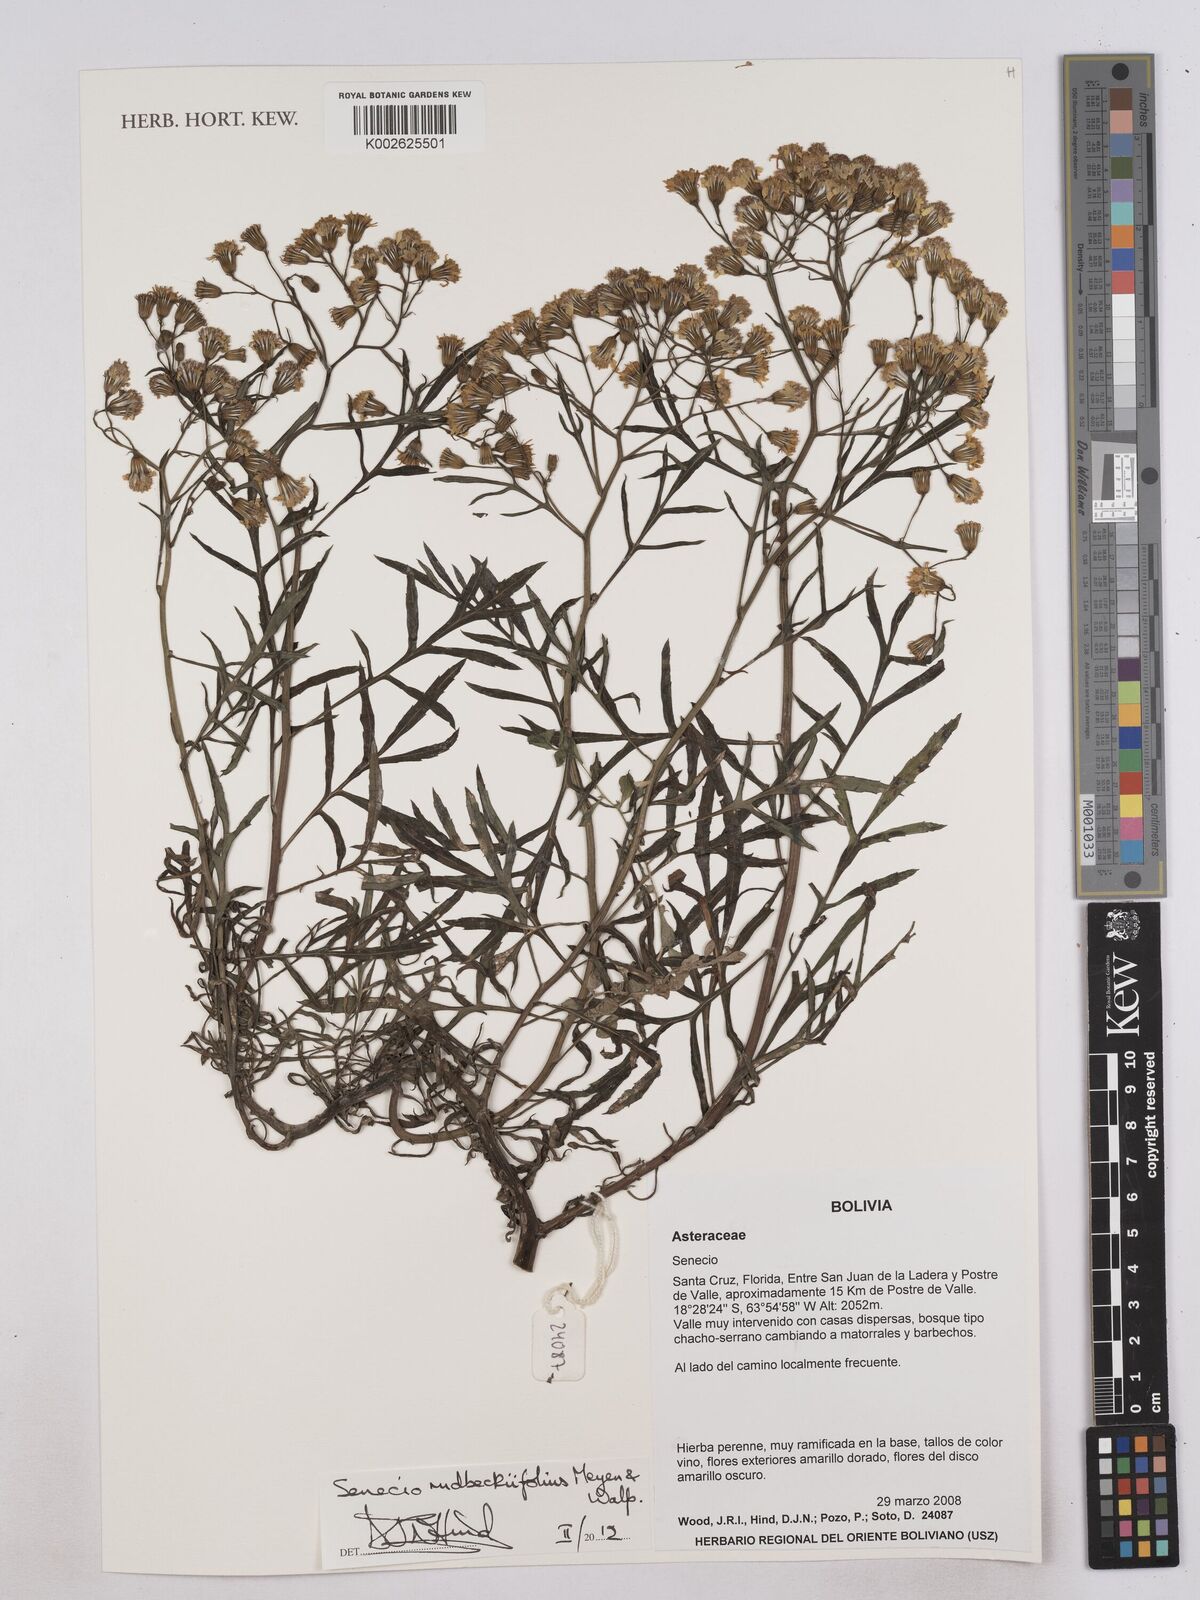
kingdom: Plantae
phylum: Tracheophyta
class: Magnoliopsida
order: Asterales
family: Asteraceae
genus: Senecio
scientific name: Senecio rudbeckiifolius
